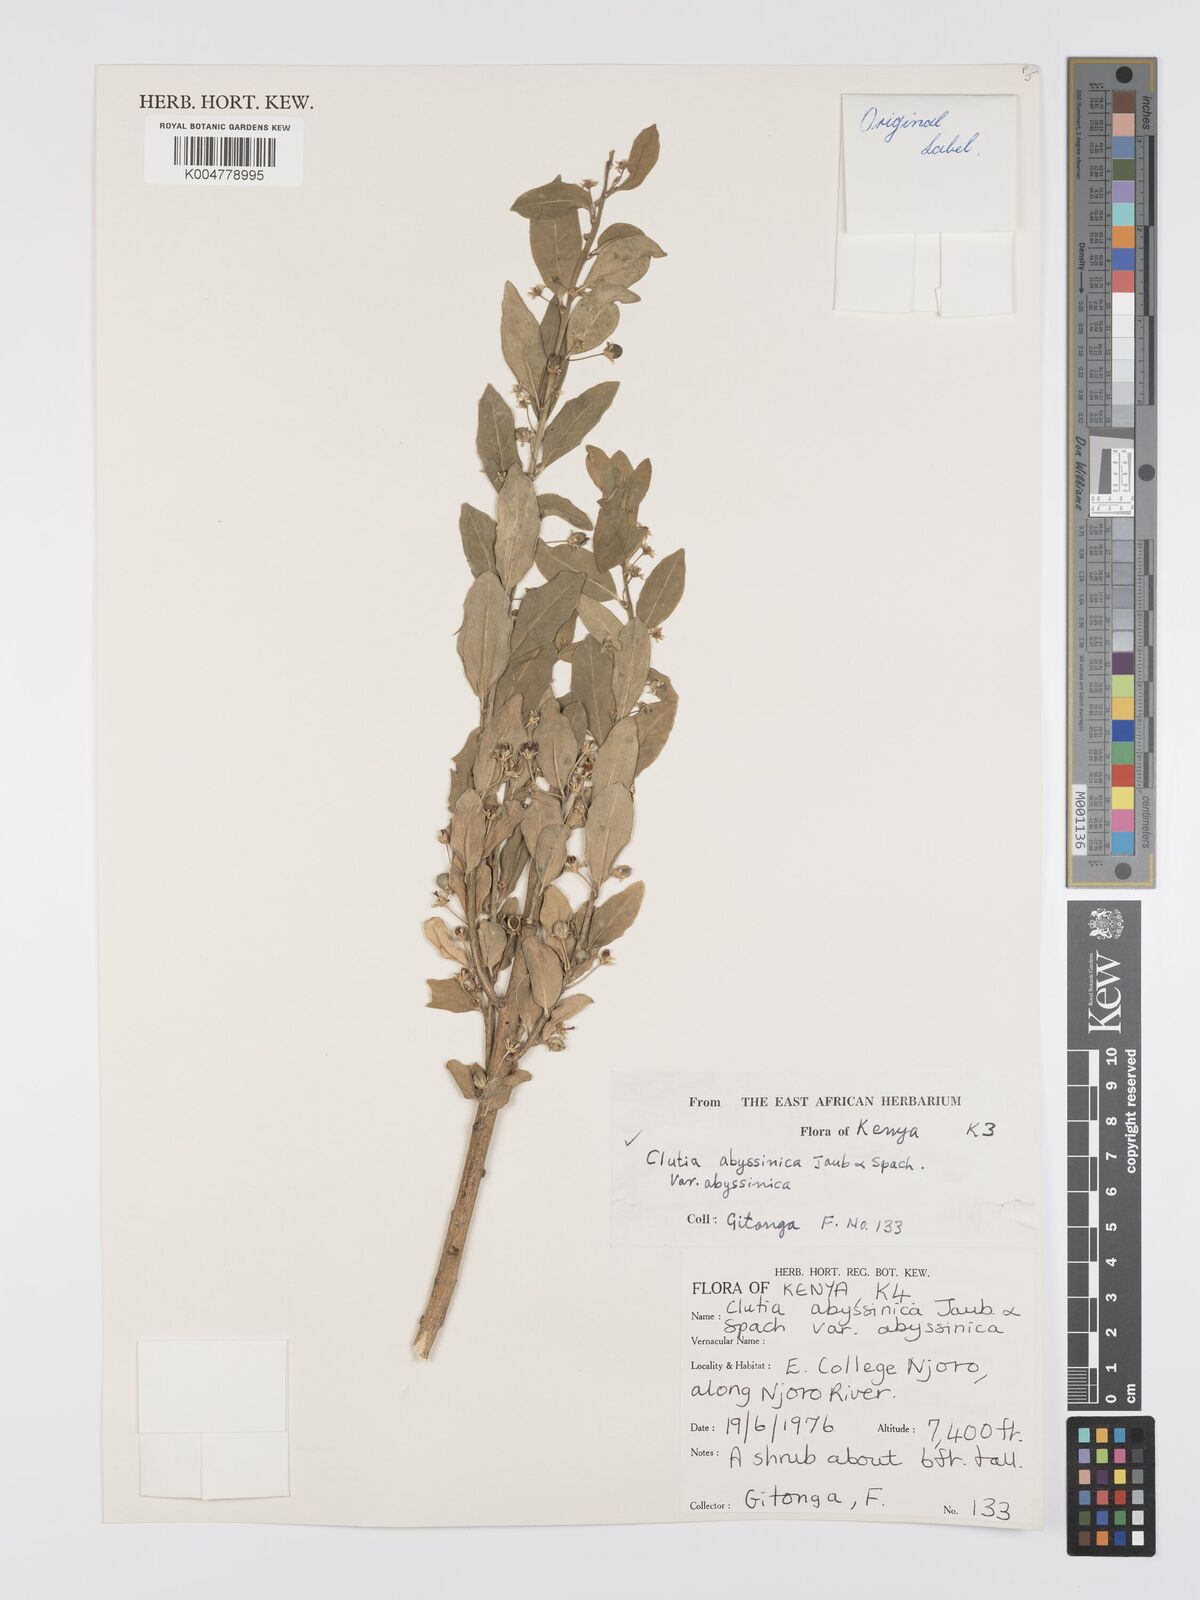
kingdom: Plantae
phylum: Tracheophyta
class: Magnoliopsida
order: Malpighiales
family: Peraceae
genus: Clutia
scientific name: Clutia abyssinica
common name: Large lightning bush
